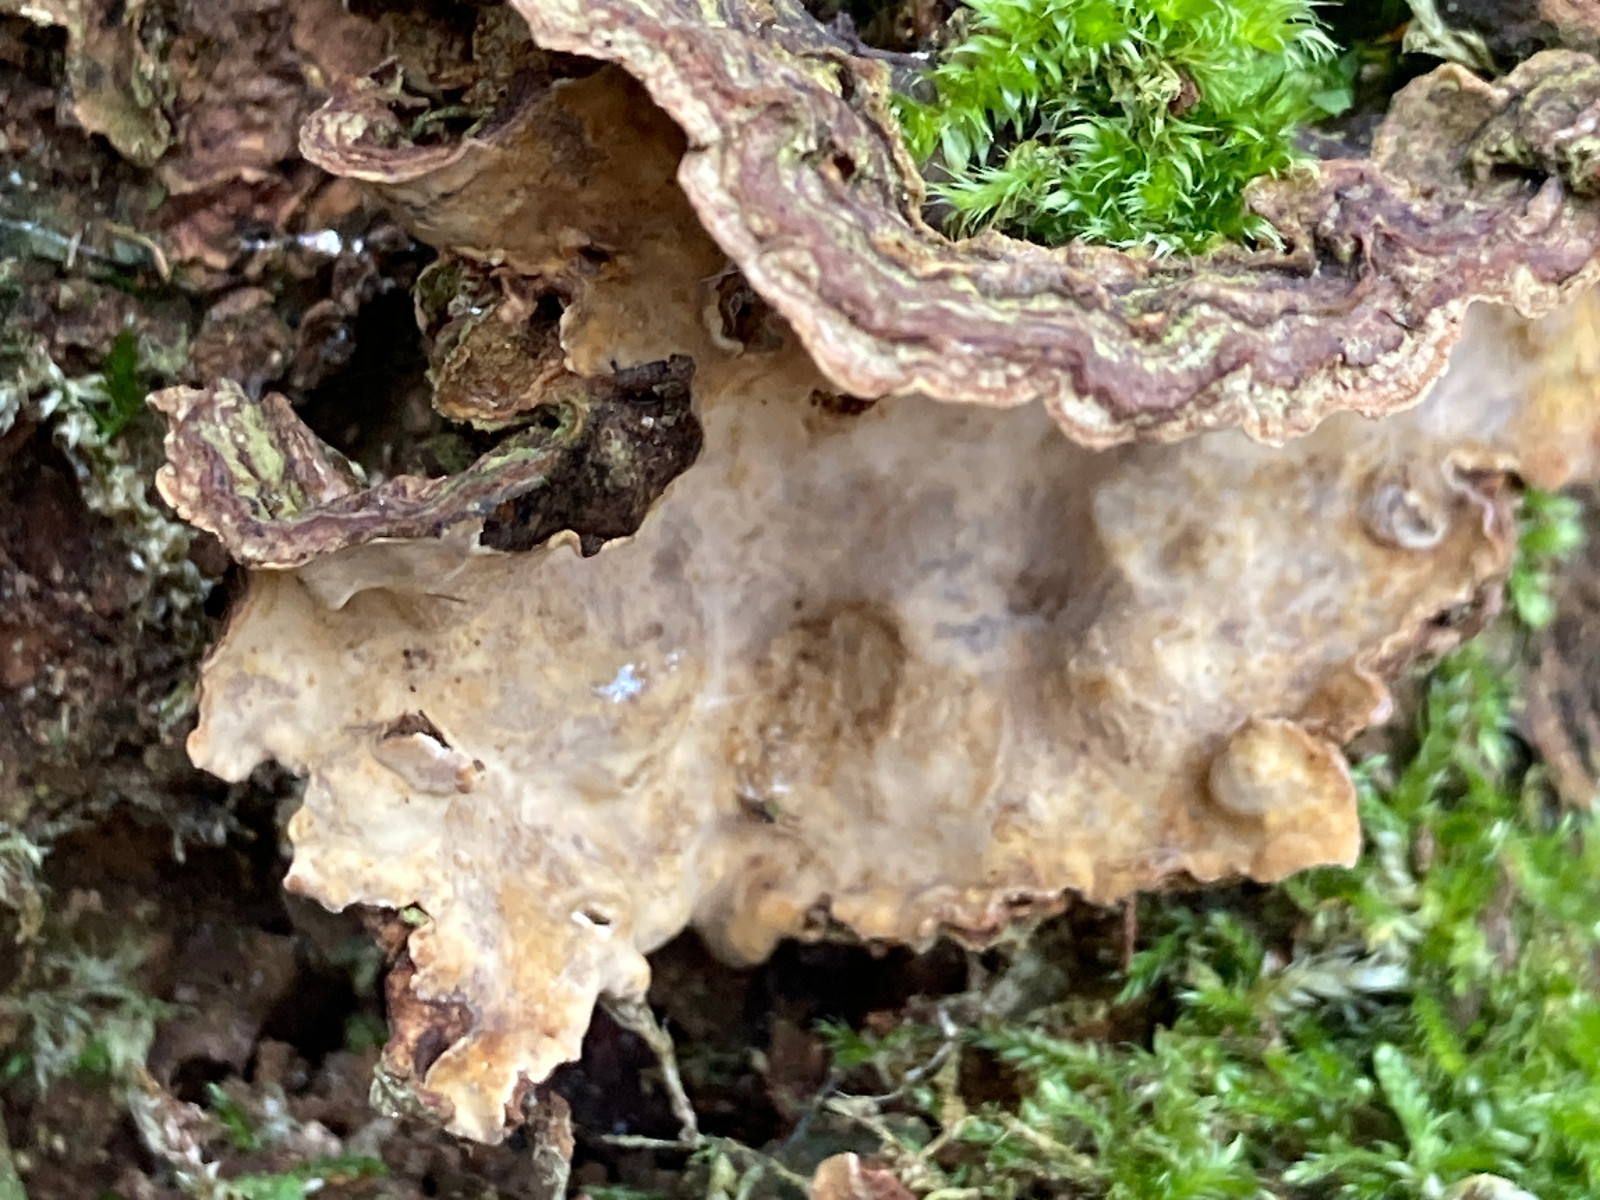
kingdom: Fungi
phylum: Basidiomycota
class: Agaricomycetes
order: Russulales
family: Stereaceae
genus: Stereum
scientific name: Stereum rugosum
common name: rynket lædersvamp
